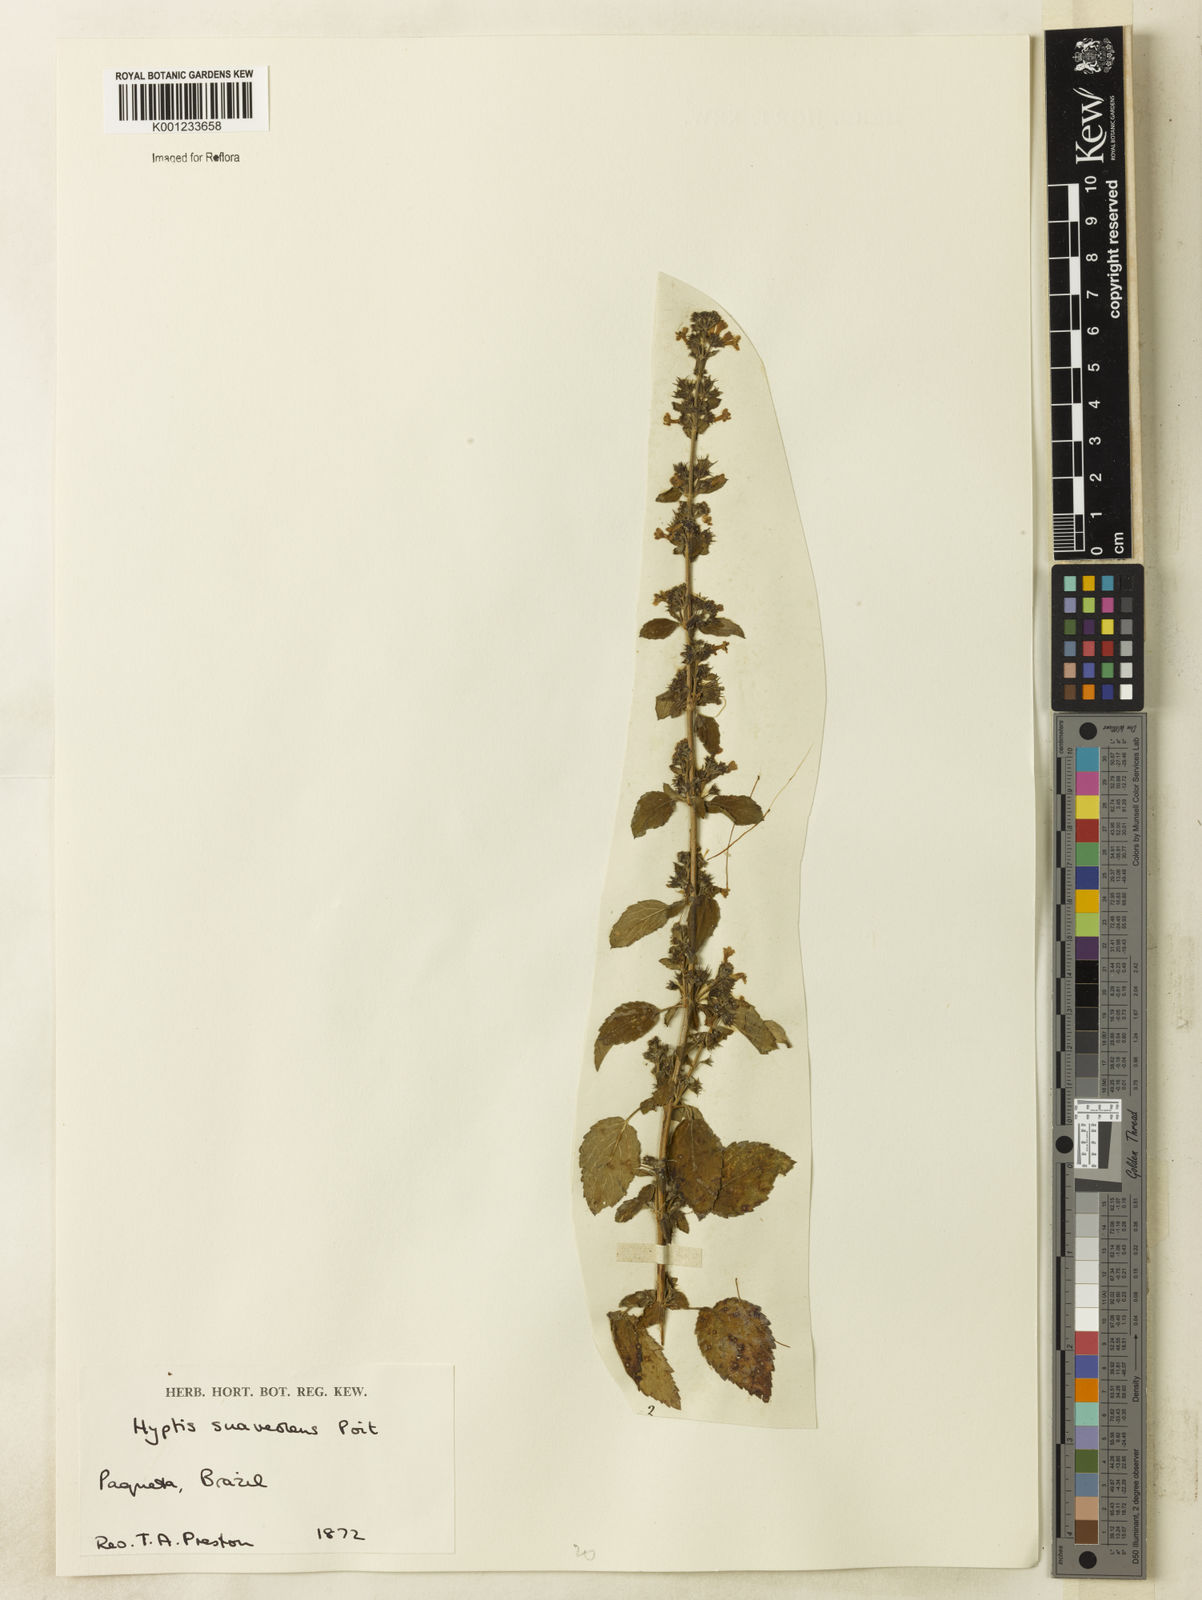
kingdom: Plantae
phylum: Tracheophyta
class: Magnoliopsida
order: Lamiales
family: Lamiaceae
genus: Mesosphaerum
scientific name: Mesosphaerum suaveolens
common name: Pignut
